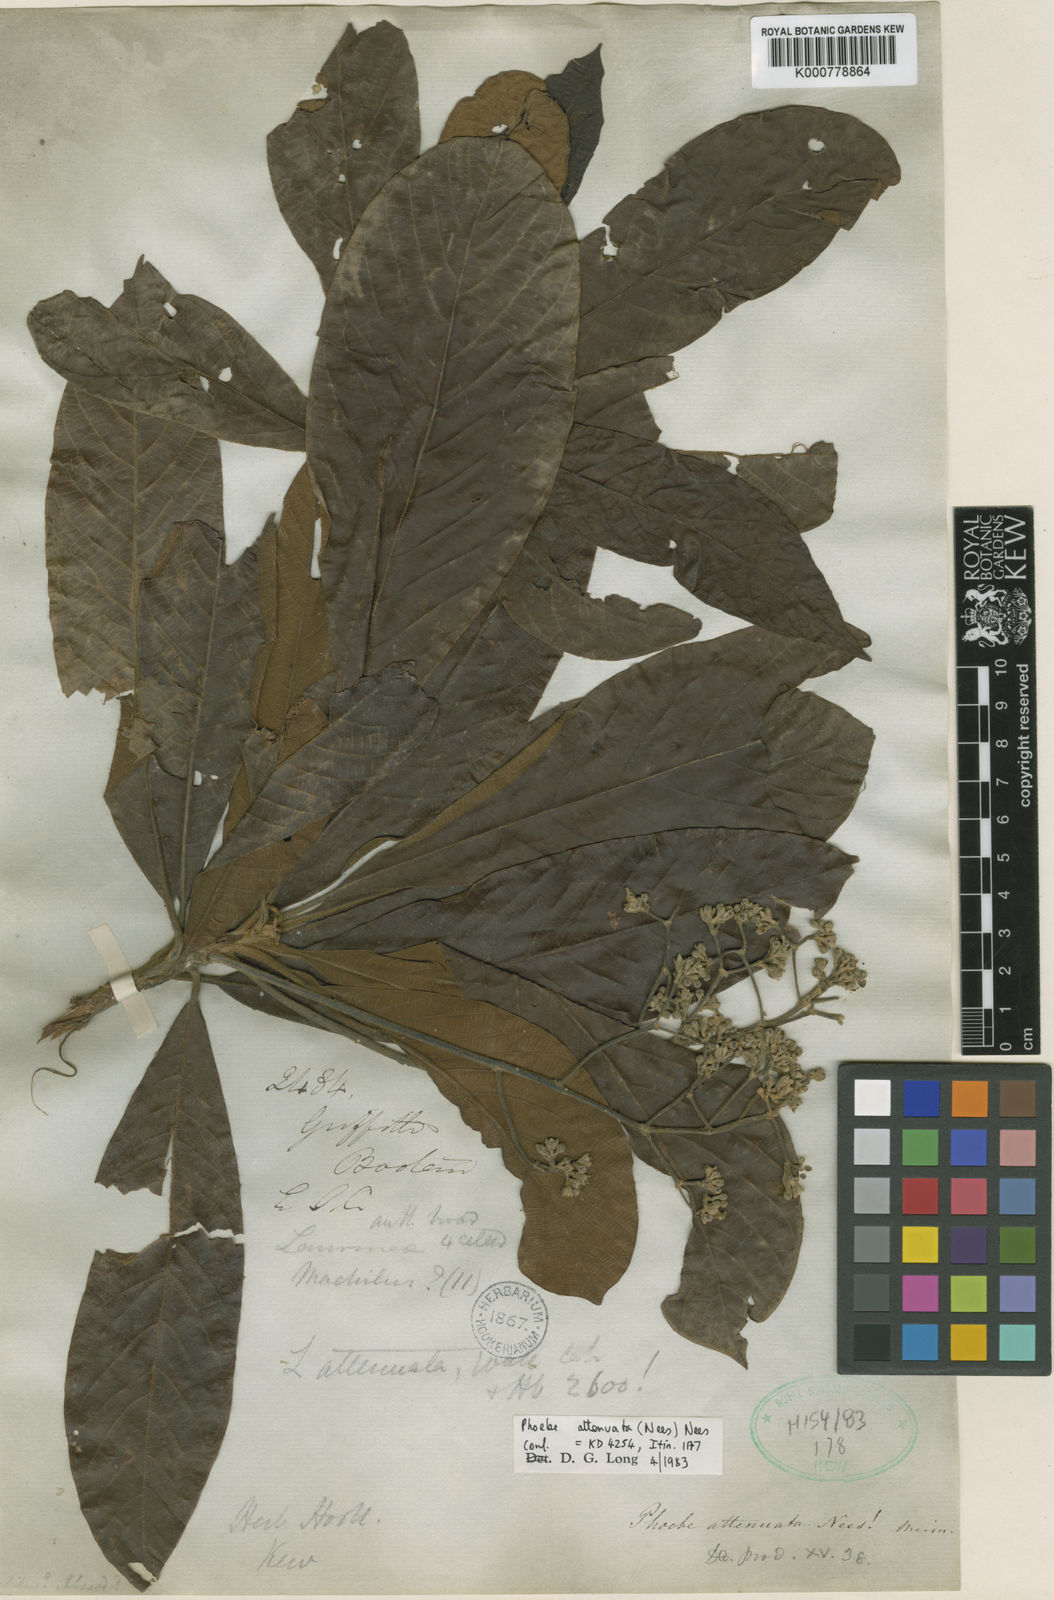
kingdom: Plantae
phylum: Tracheophyta
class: Magnoliopsida
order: Laurales
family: Lauraceae
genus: Phoebe
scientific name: Phoebe attenuata
